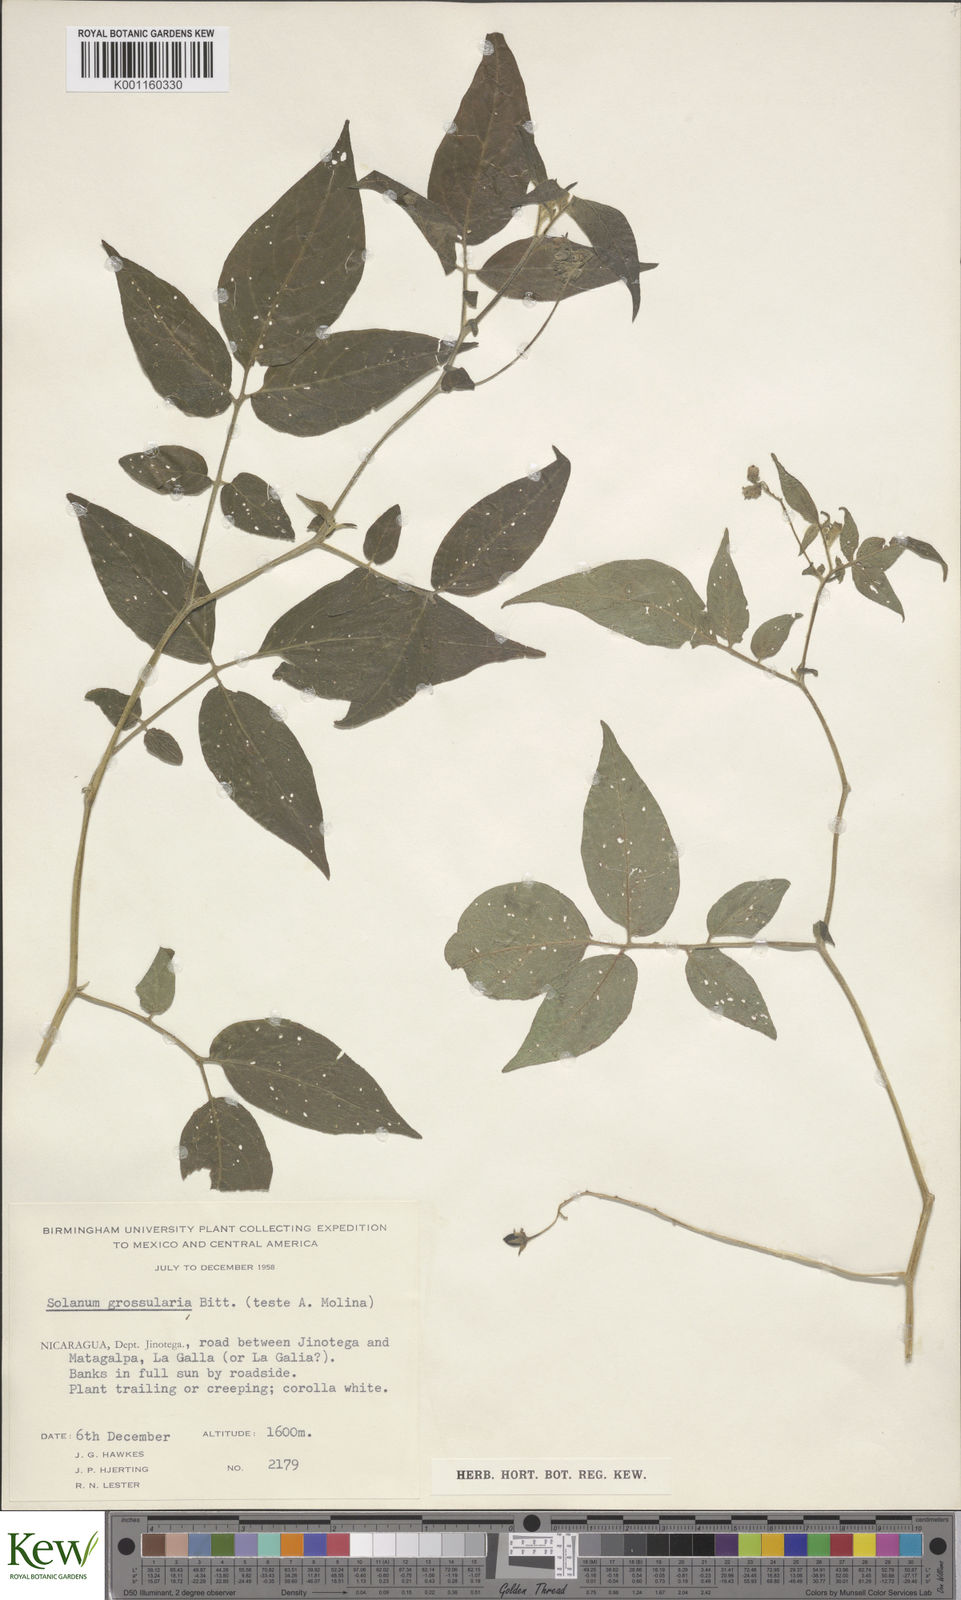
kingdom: Plantae
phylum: Tracheophyta
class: Magnoliopsida
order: Solanales
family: Solanaceae
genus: Solanum
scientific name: Solanum caripense
